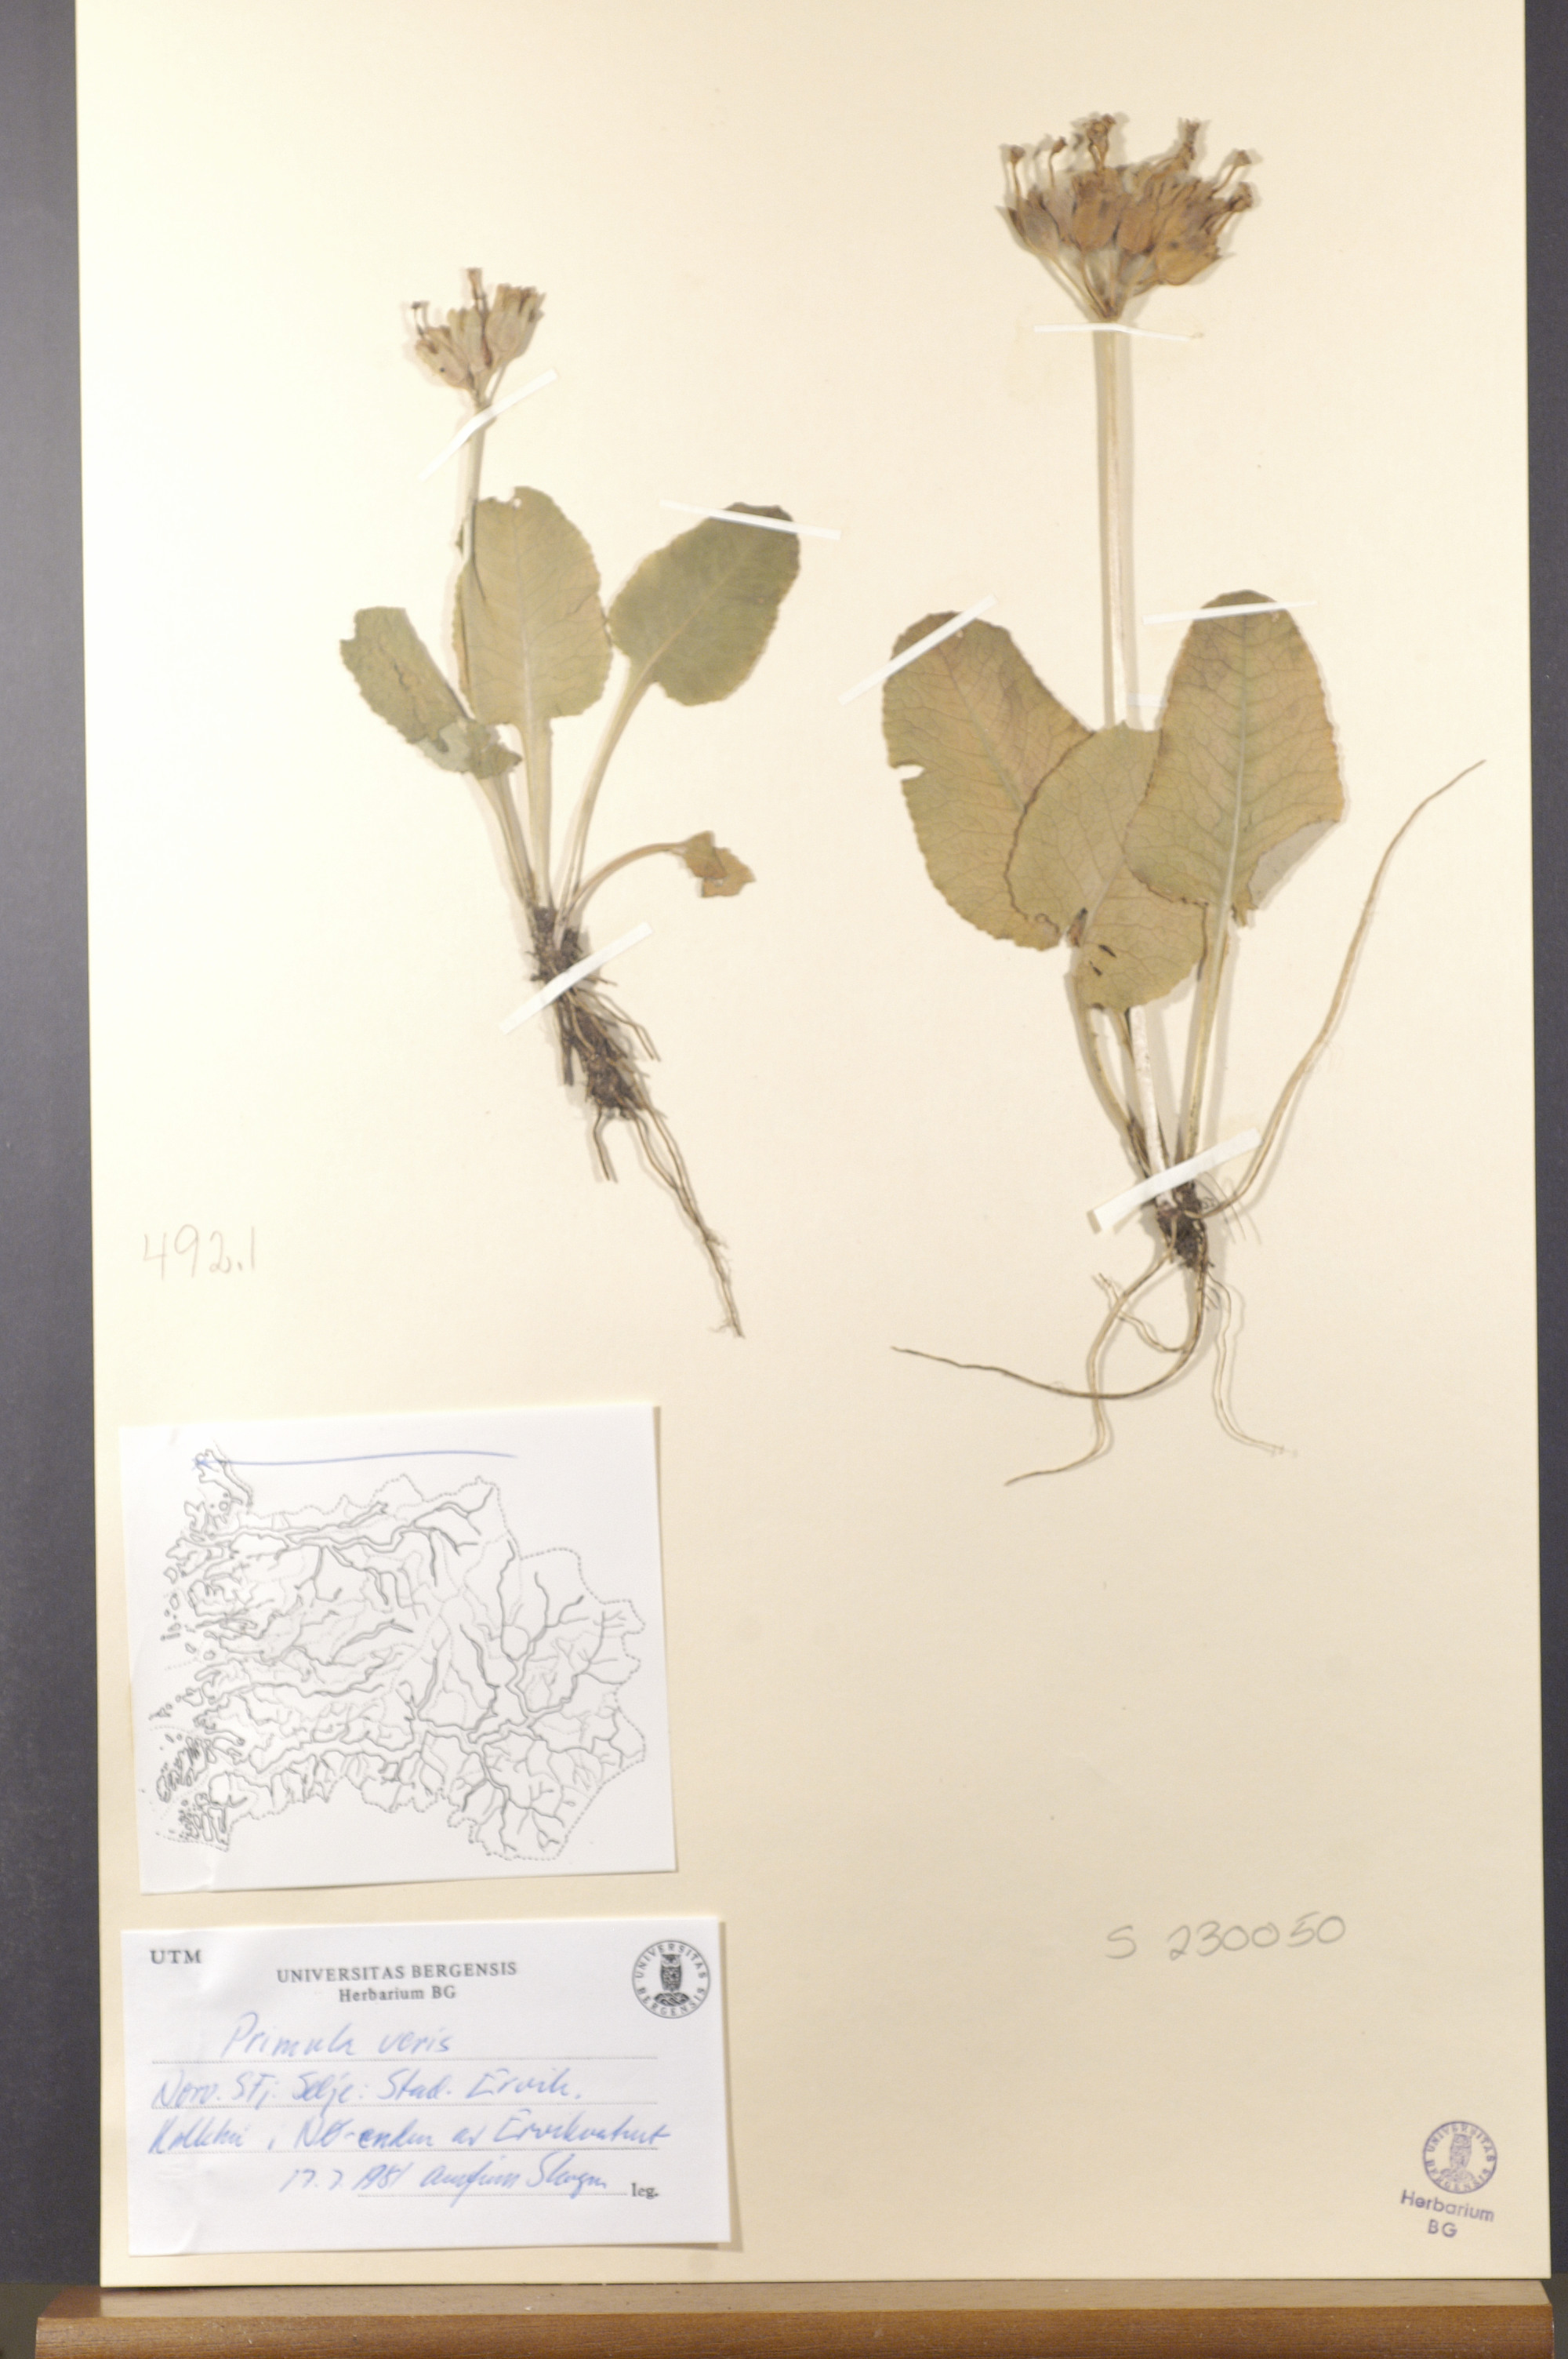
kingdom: Plantae
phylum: Tracheophyta
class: Magnoliopsida
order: Ericales
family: Primulaceae
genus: Primula
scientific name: Primula veris
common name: Cowslip
